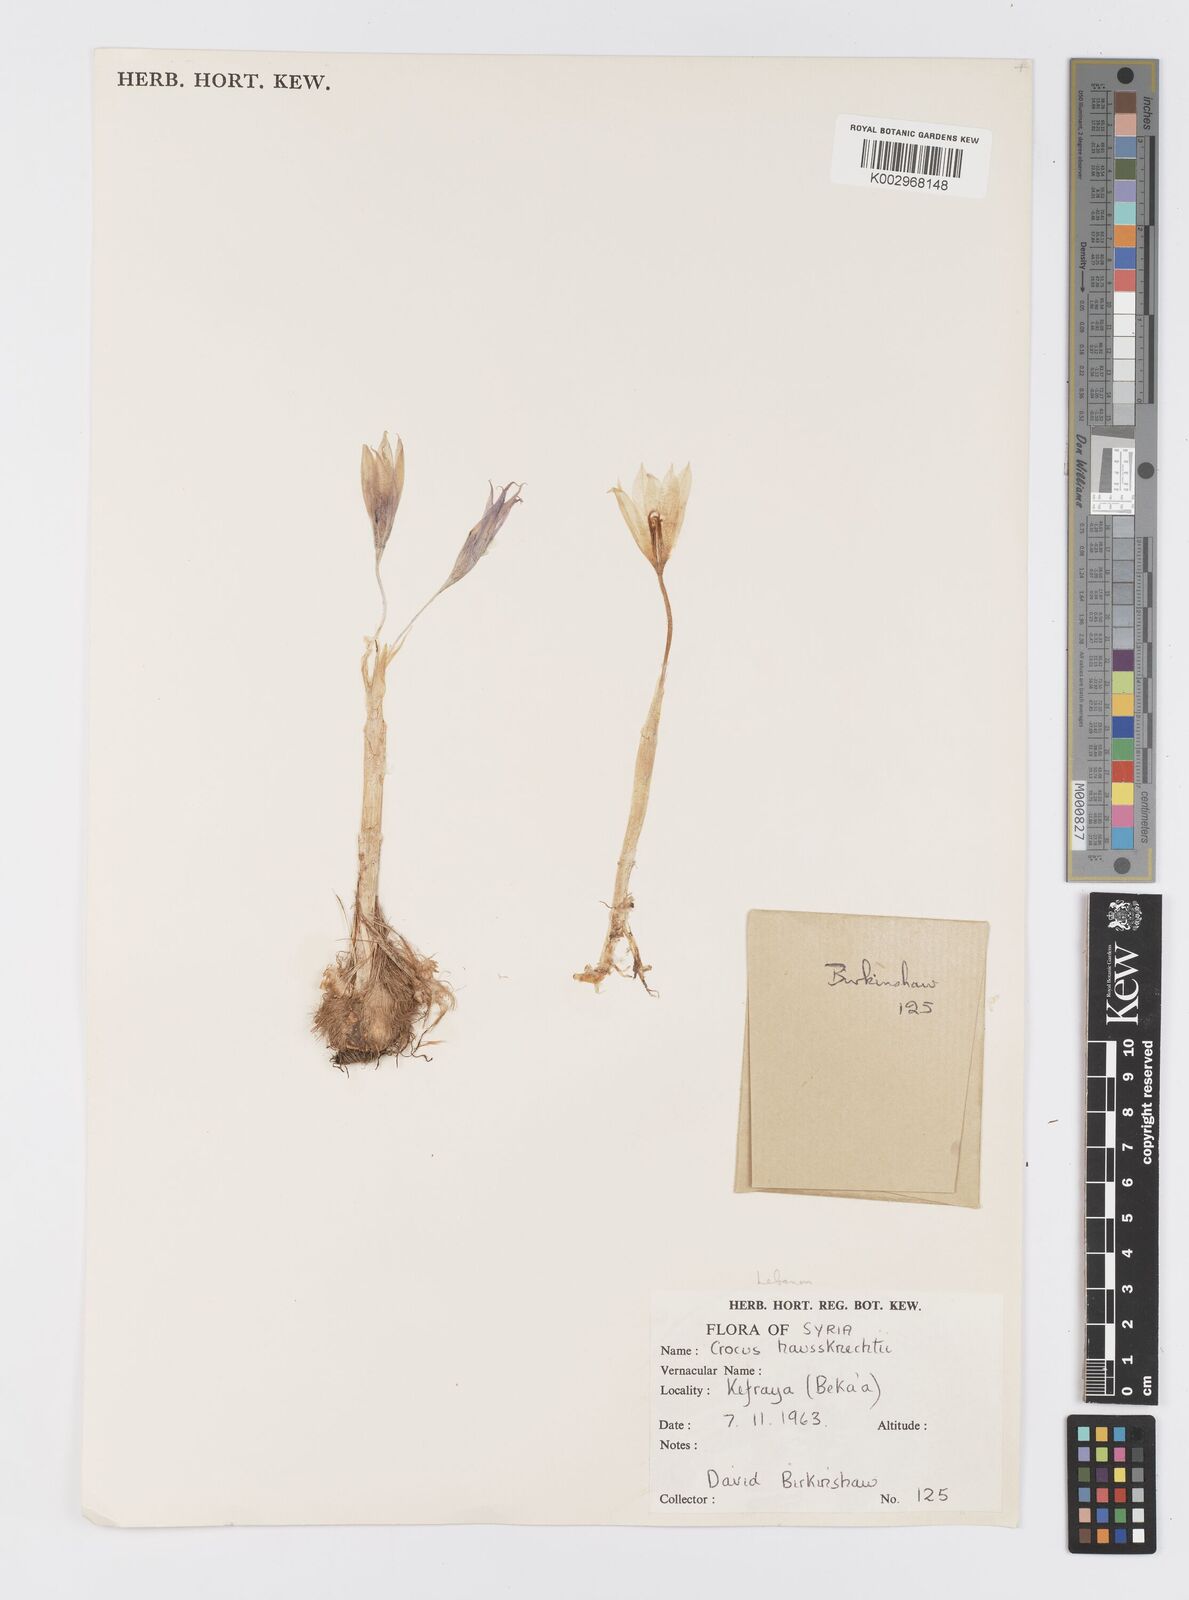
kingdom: Plantae
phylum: Tracheophyta
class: Liliopsida
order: Asparagales
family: Iridaceae
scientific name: Iridaceae
